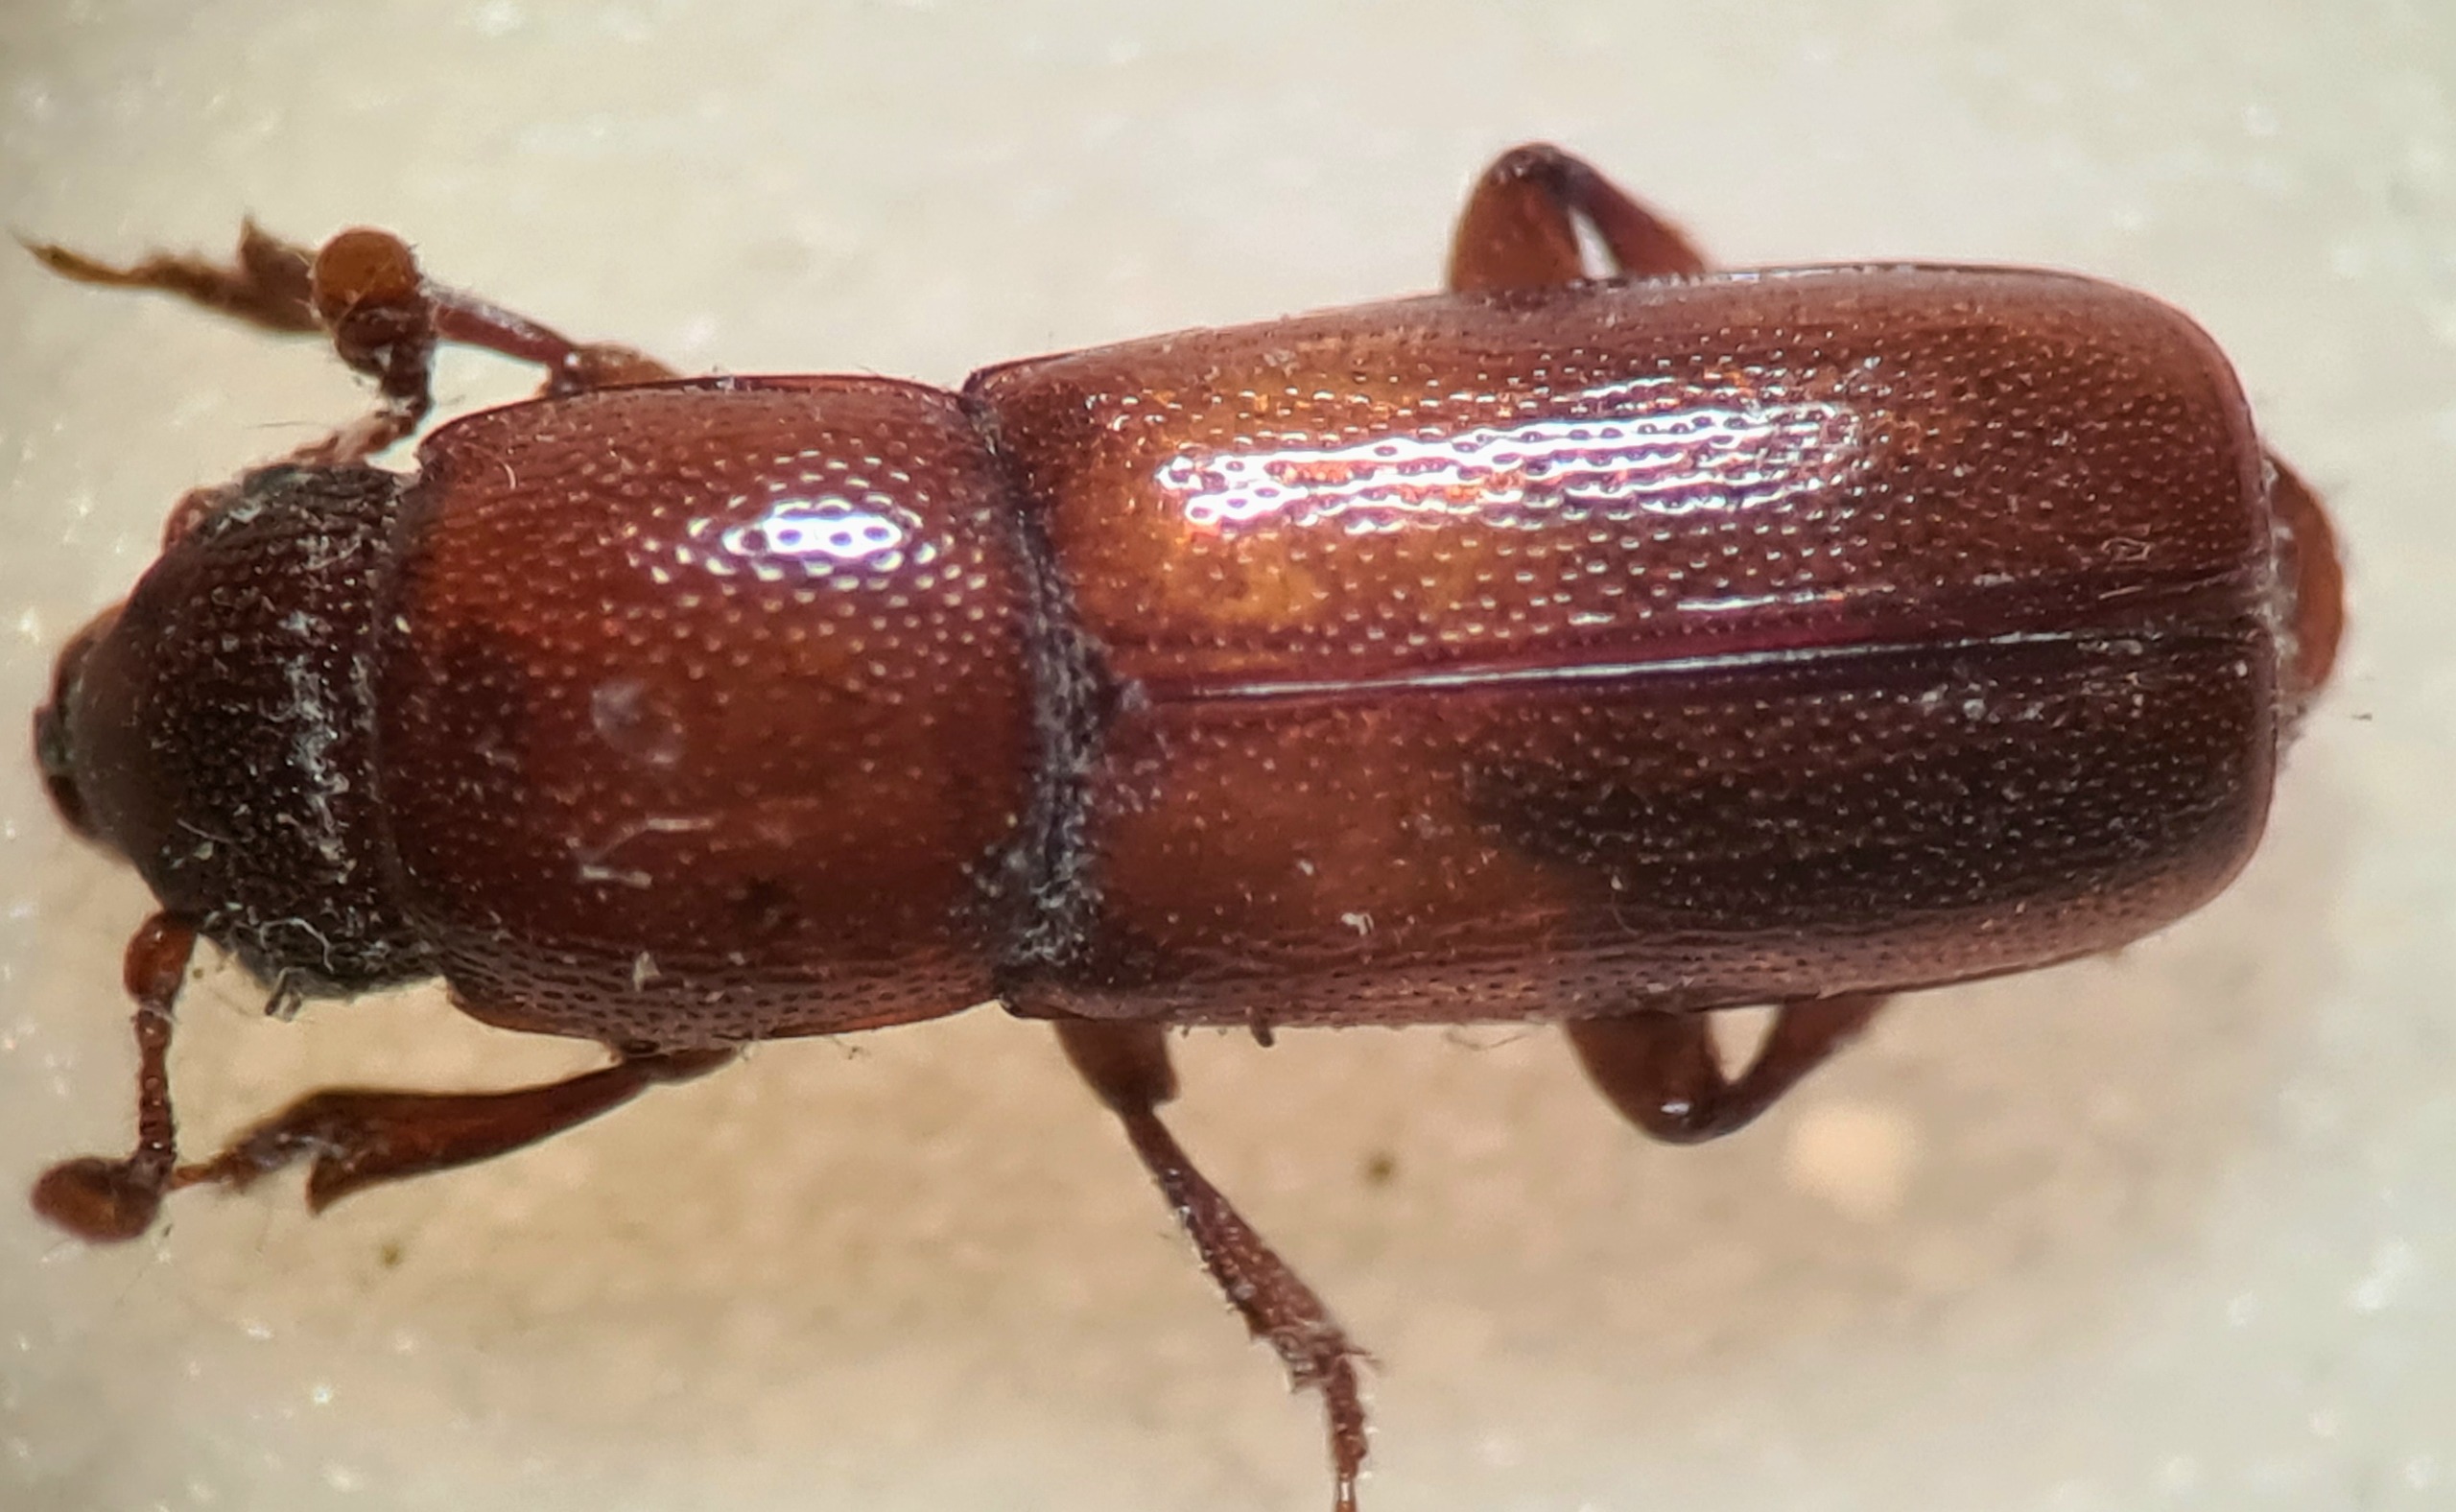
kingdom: Animalia
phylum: Arthropoda
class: Insecta
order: Coleoptera
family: Nitidulidae
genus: Pityophagus
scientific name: Pityophagus ferrugineus
